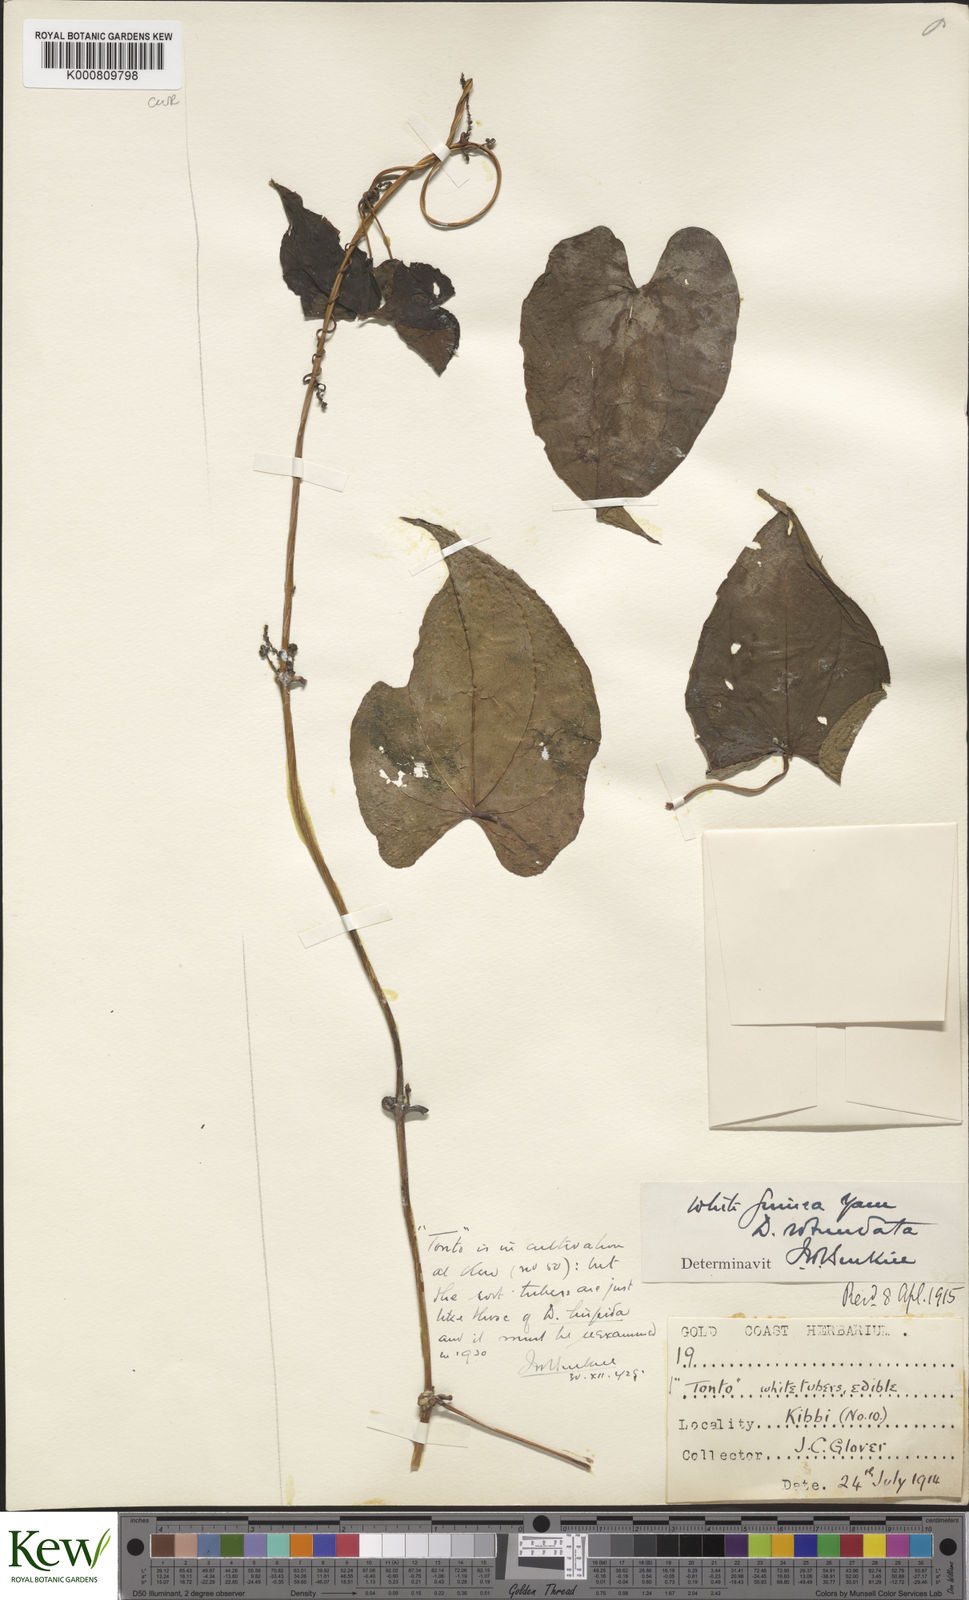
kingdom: Plantae
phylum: Tracheophyta
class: Liliopsida
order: Dioscoreales
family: Dioscoreaceae
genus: Dioscorea
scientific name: Dioscorea cayenensis
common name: Attoto yam
